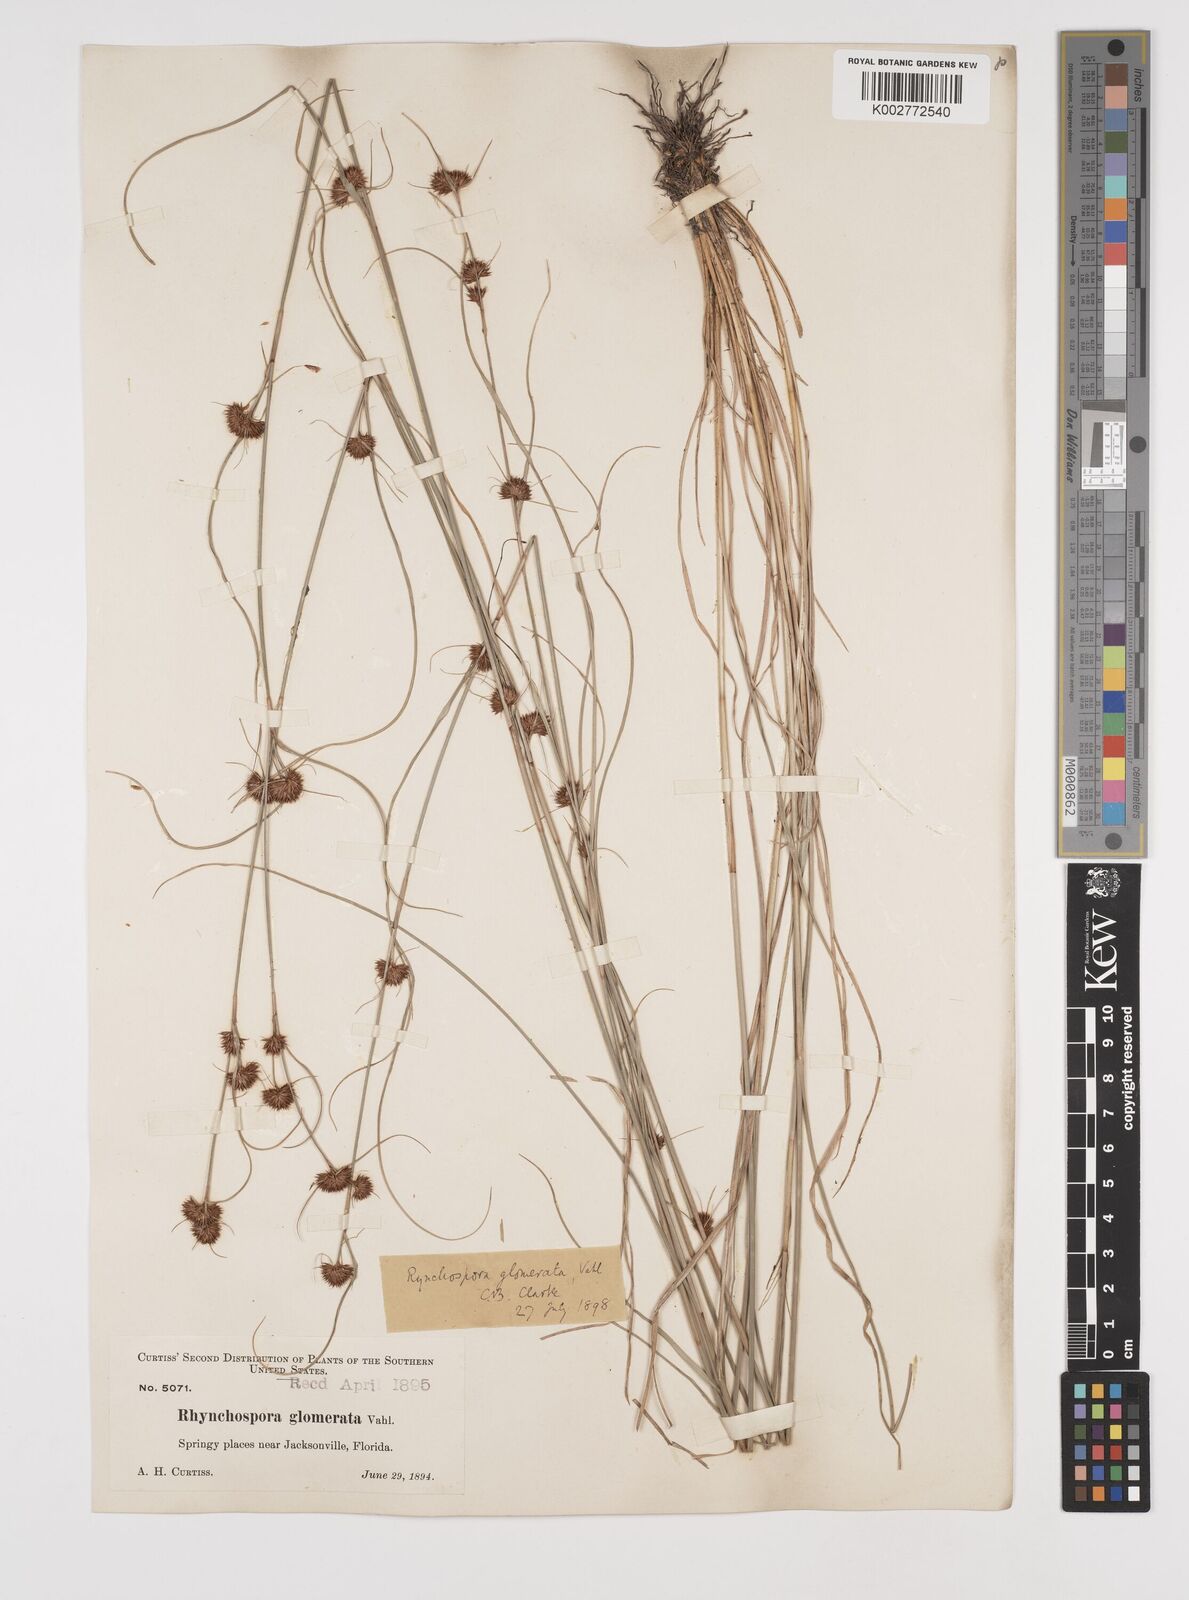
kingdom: Plantae
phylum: Tracheophyta
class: Liliopsida
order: Poales
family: Cyperaceae
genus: Rhynchospora
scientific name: Rhynchospora glomerata
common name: Cluster beak sedge
